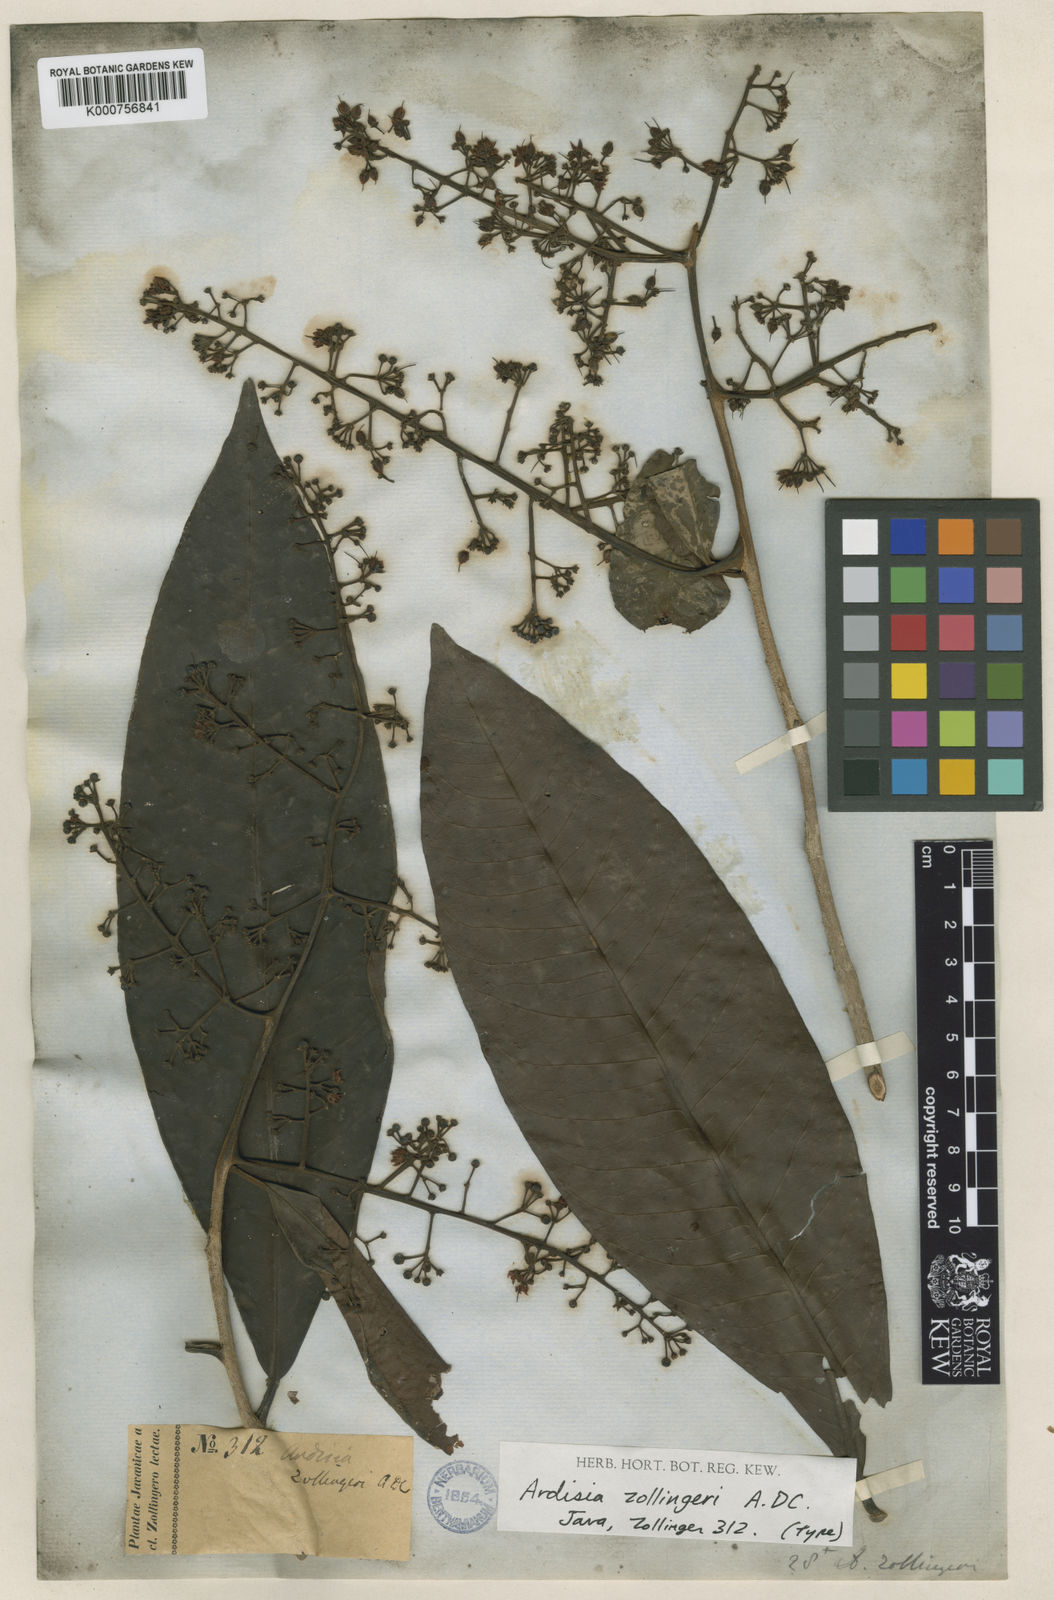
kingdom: Plantae
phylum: Tracheophyta
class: Magnoliopsida
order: Ericales
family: Primulaceae
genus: Ardisia
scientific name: Ardisia complanata
